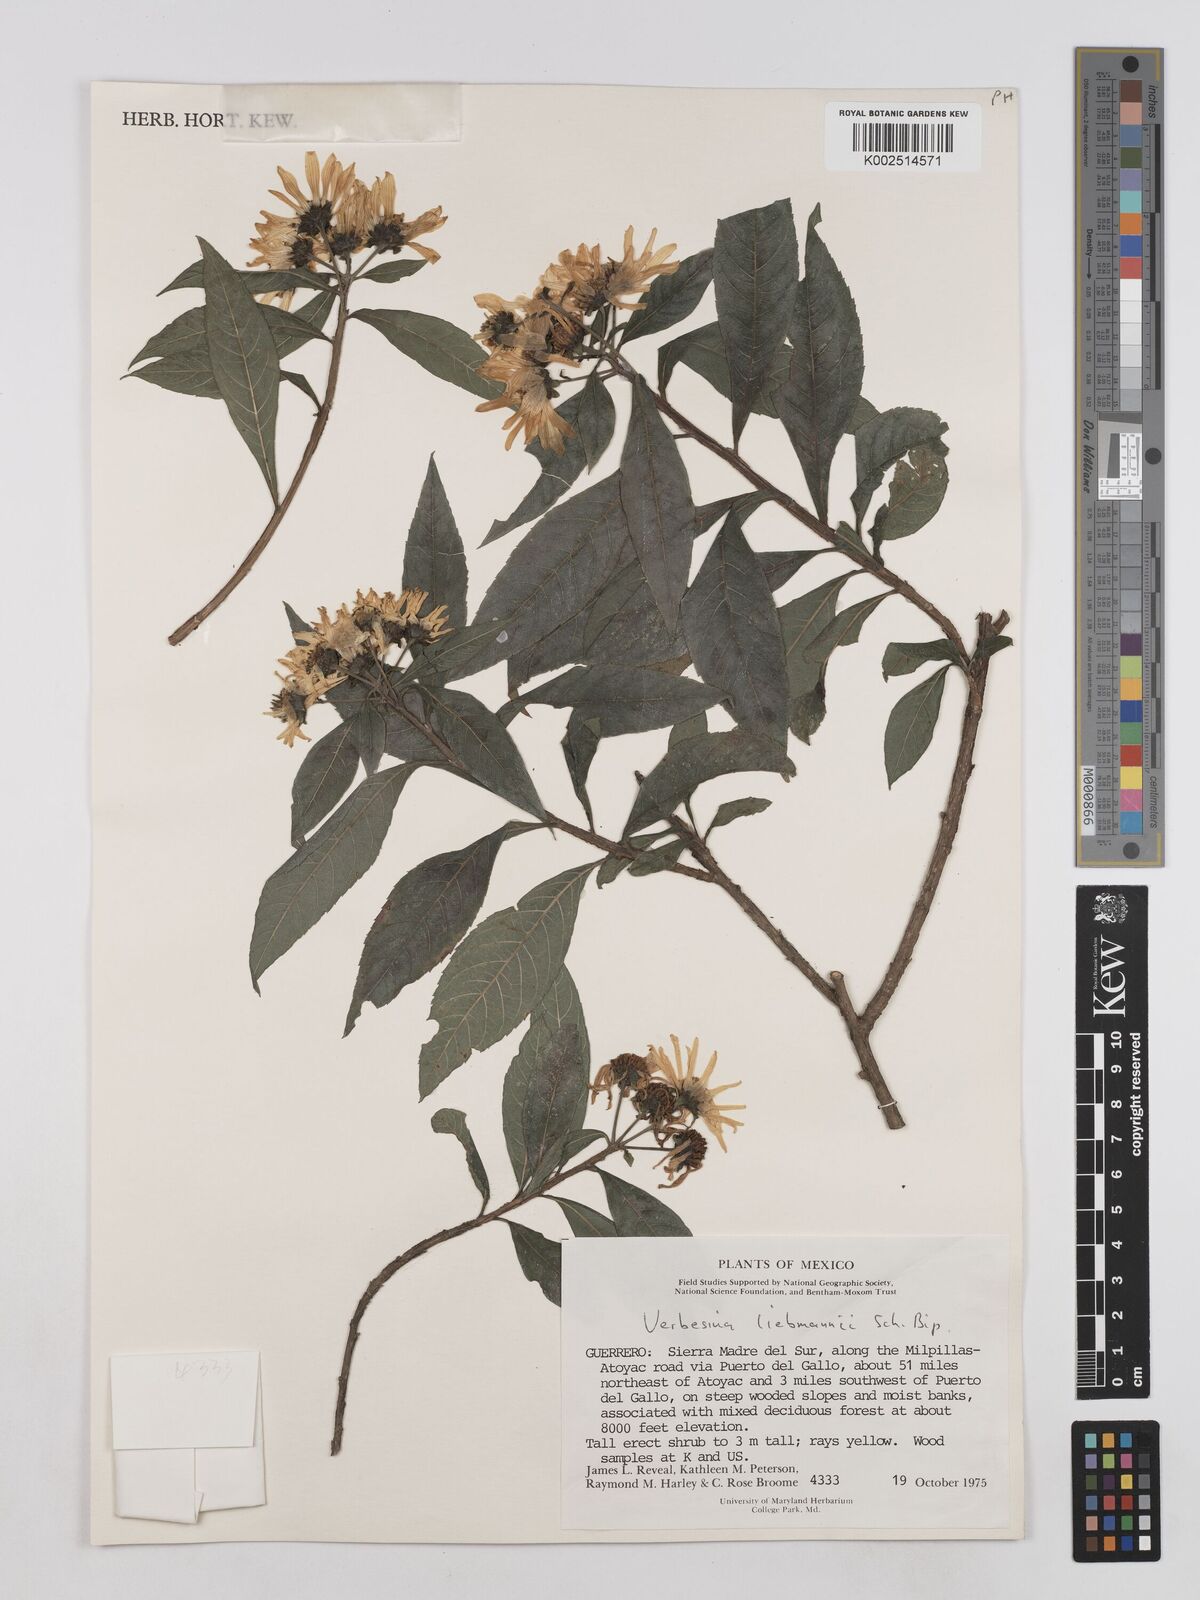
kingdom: Plantae
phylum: Tracheophyta
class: Magnoliopsida
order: Asterales
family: Asteraceae
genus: Verbesina
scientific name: Verbesina liebmannii
